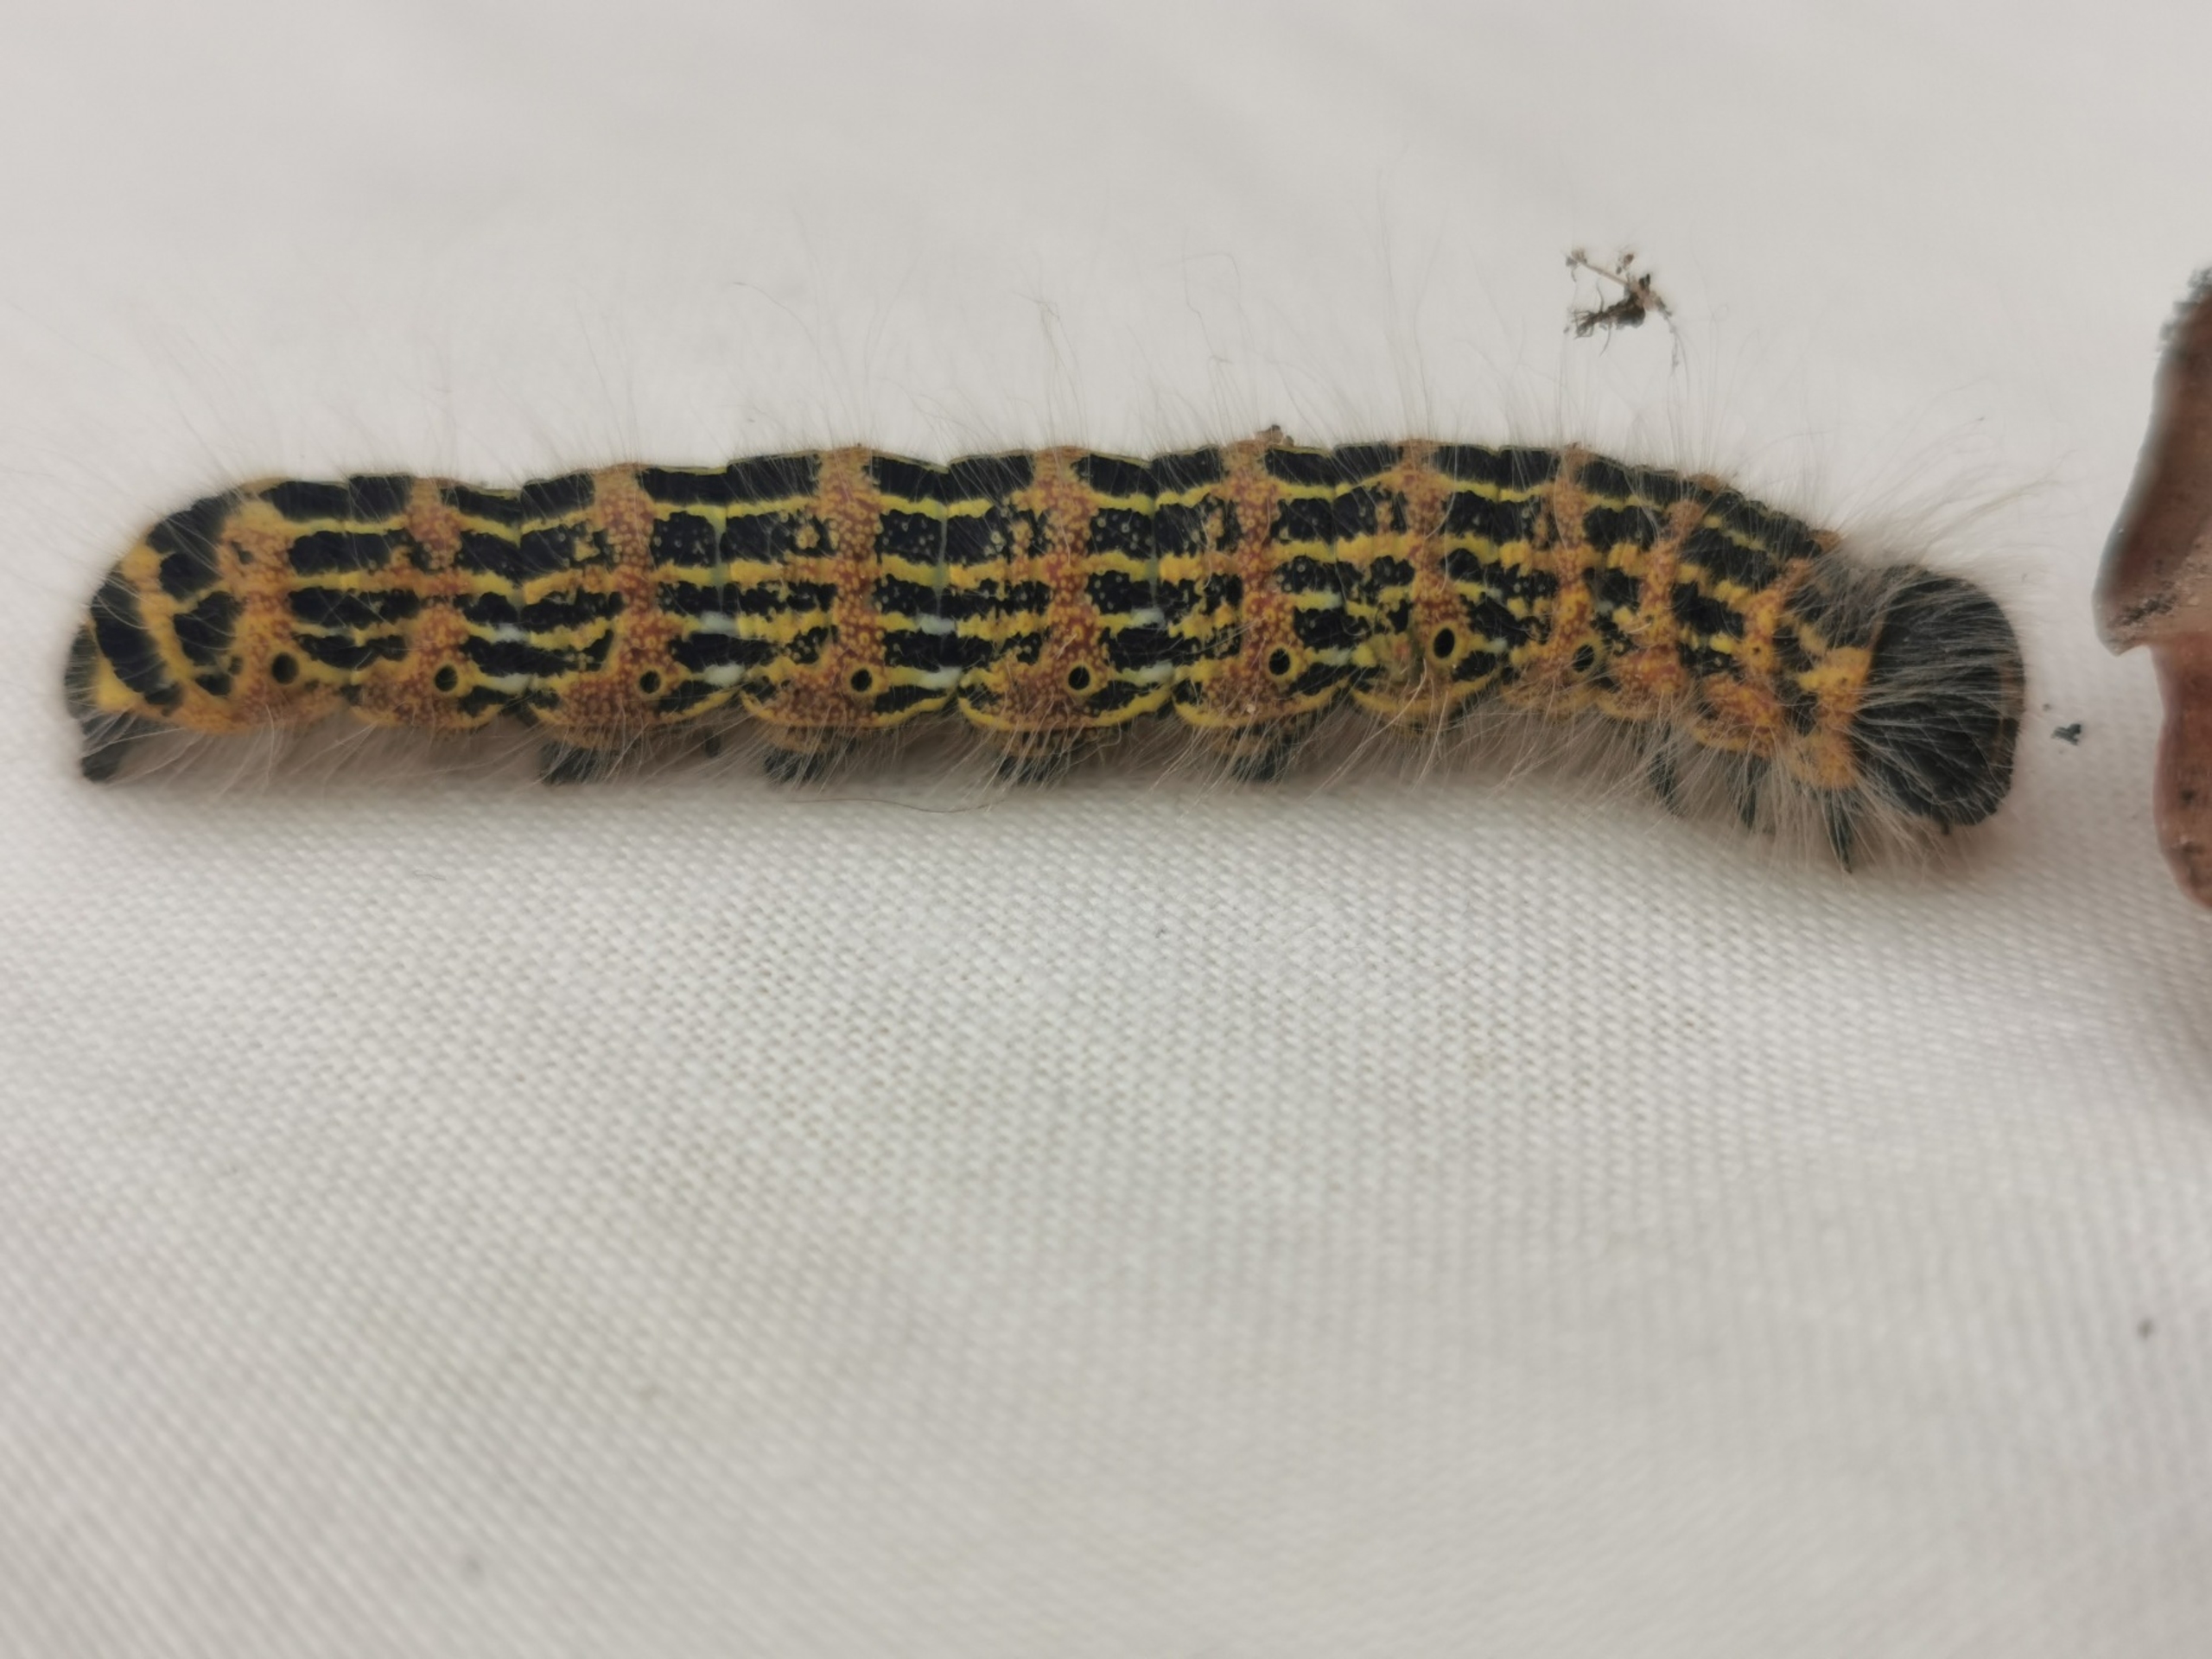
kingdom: Animalia
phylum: Arthropoda
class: Insecta
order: Lepidoptera
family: Notodontidae
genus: Phalera
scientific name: Phalera bucephala
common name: Måneplet
